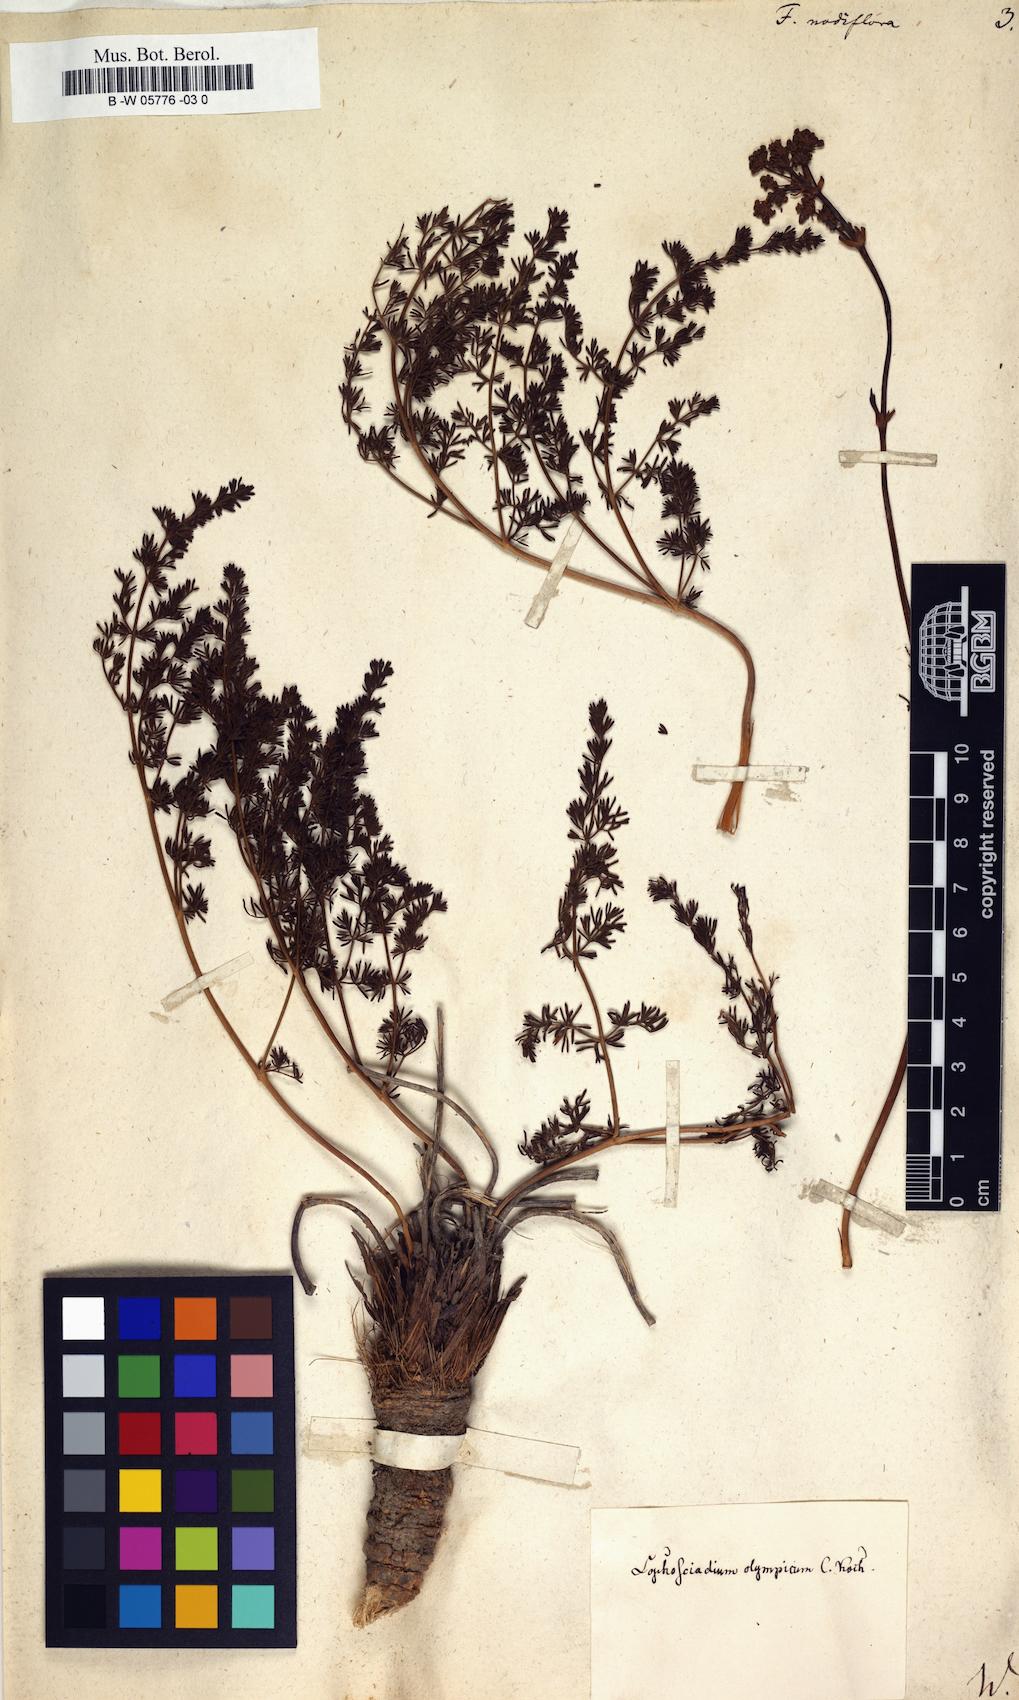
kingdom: Plantae
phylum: Tracheophyta
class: Magnoliopsida
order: Apiales
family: Apiaceae
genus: Ferula
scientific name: Ferula communis
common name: Giant fennel
